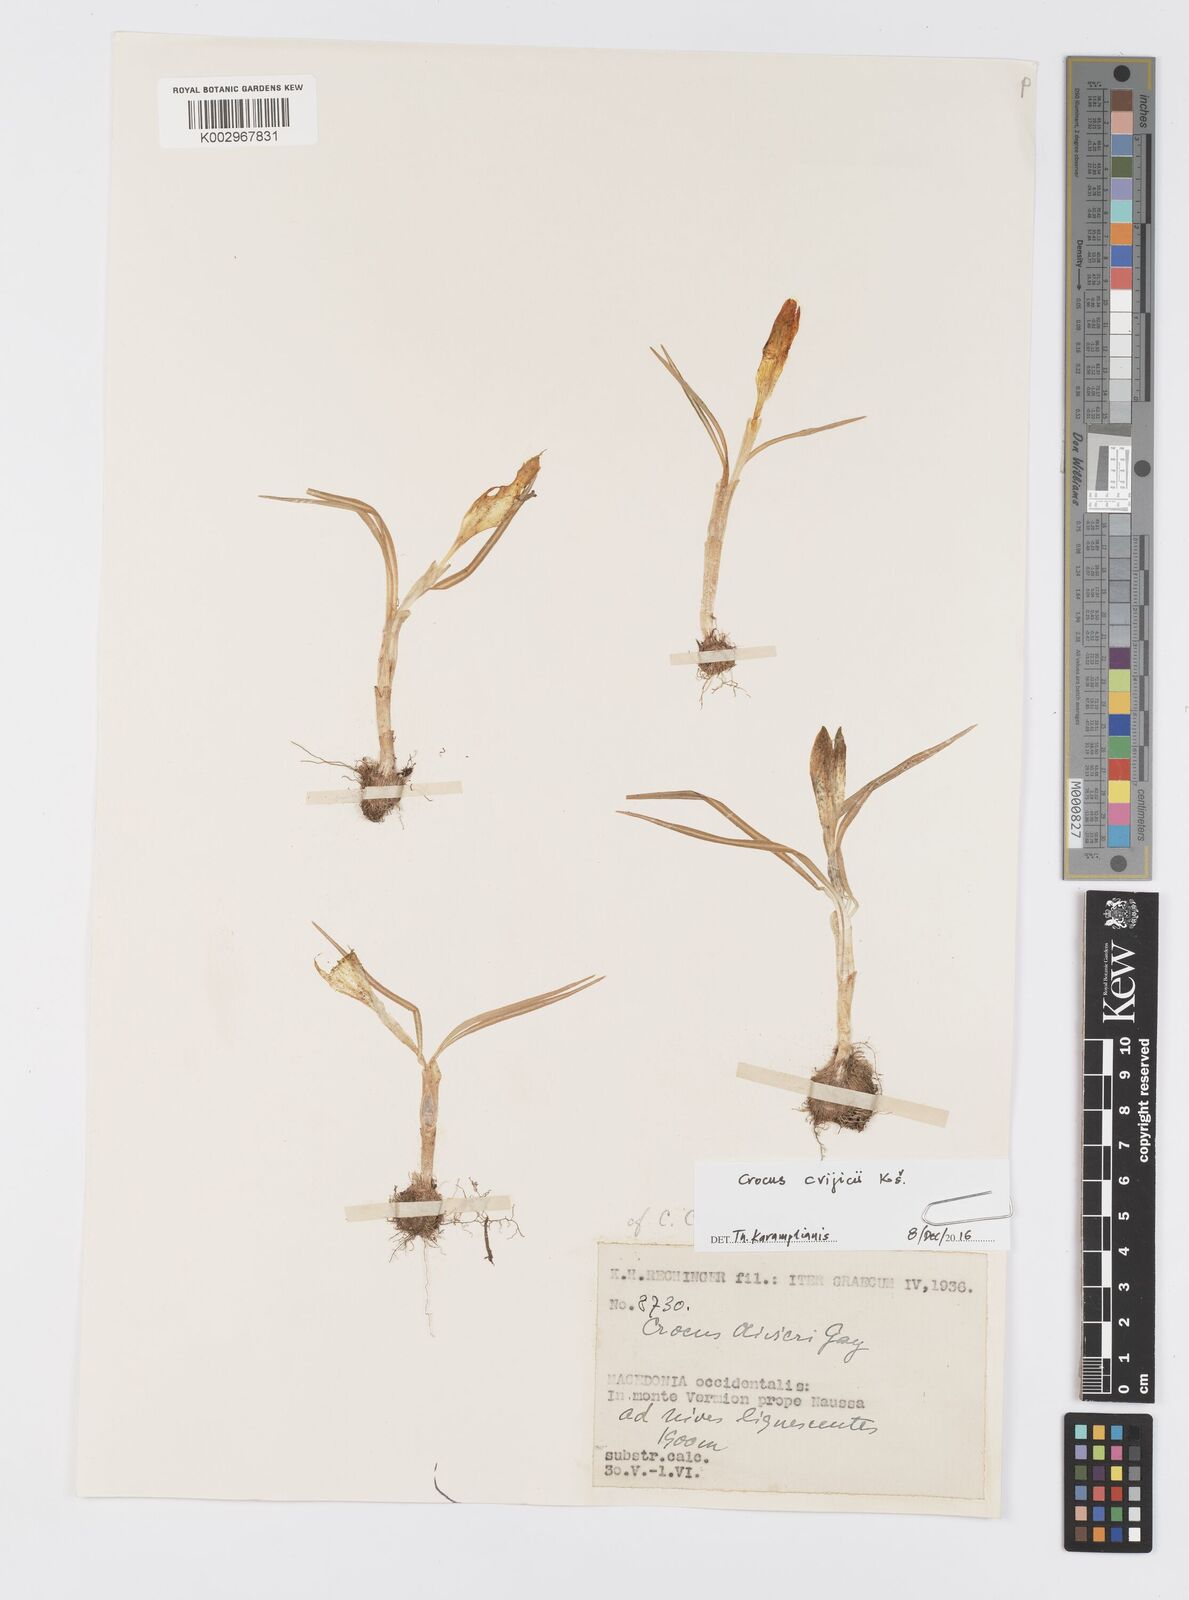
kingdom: Plantae
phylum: Tracheophyta
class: Liliopsida
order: Asparagales
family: Iridaceae
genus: Crocus
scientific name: Crocus cvijicii
